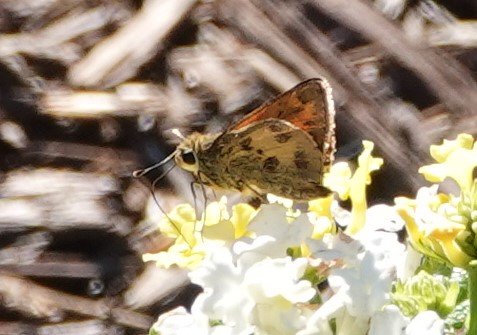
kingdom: Animalia
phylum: Arthropoda
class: Insecta
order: Lepidoptera
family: Hesperiidae
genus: Polites
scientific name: Polites vibex
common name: Whirlabout
